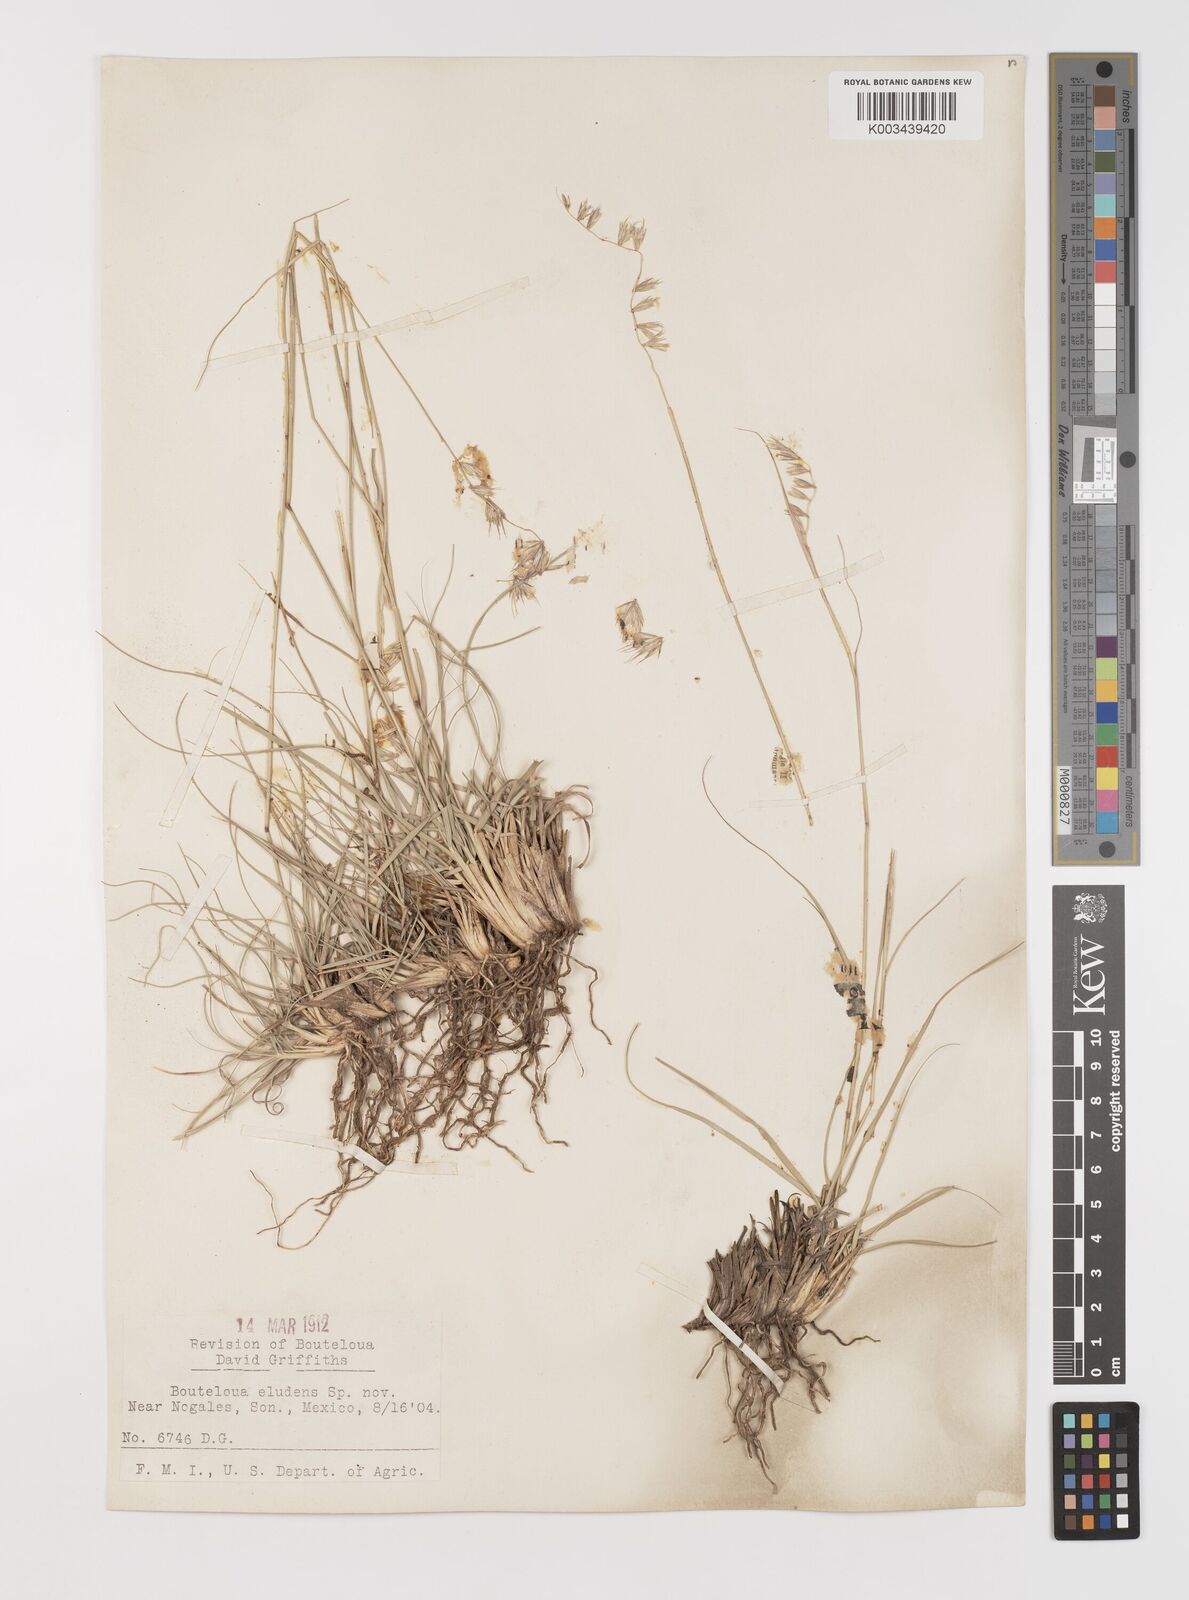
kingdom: Plantae
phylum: Tracheophyta
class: Liliopsida
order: Poales
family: Poaceae
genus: Bouteloua
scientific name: Bouteloua eludens
